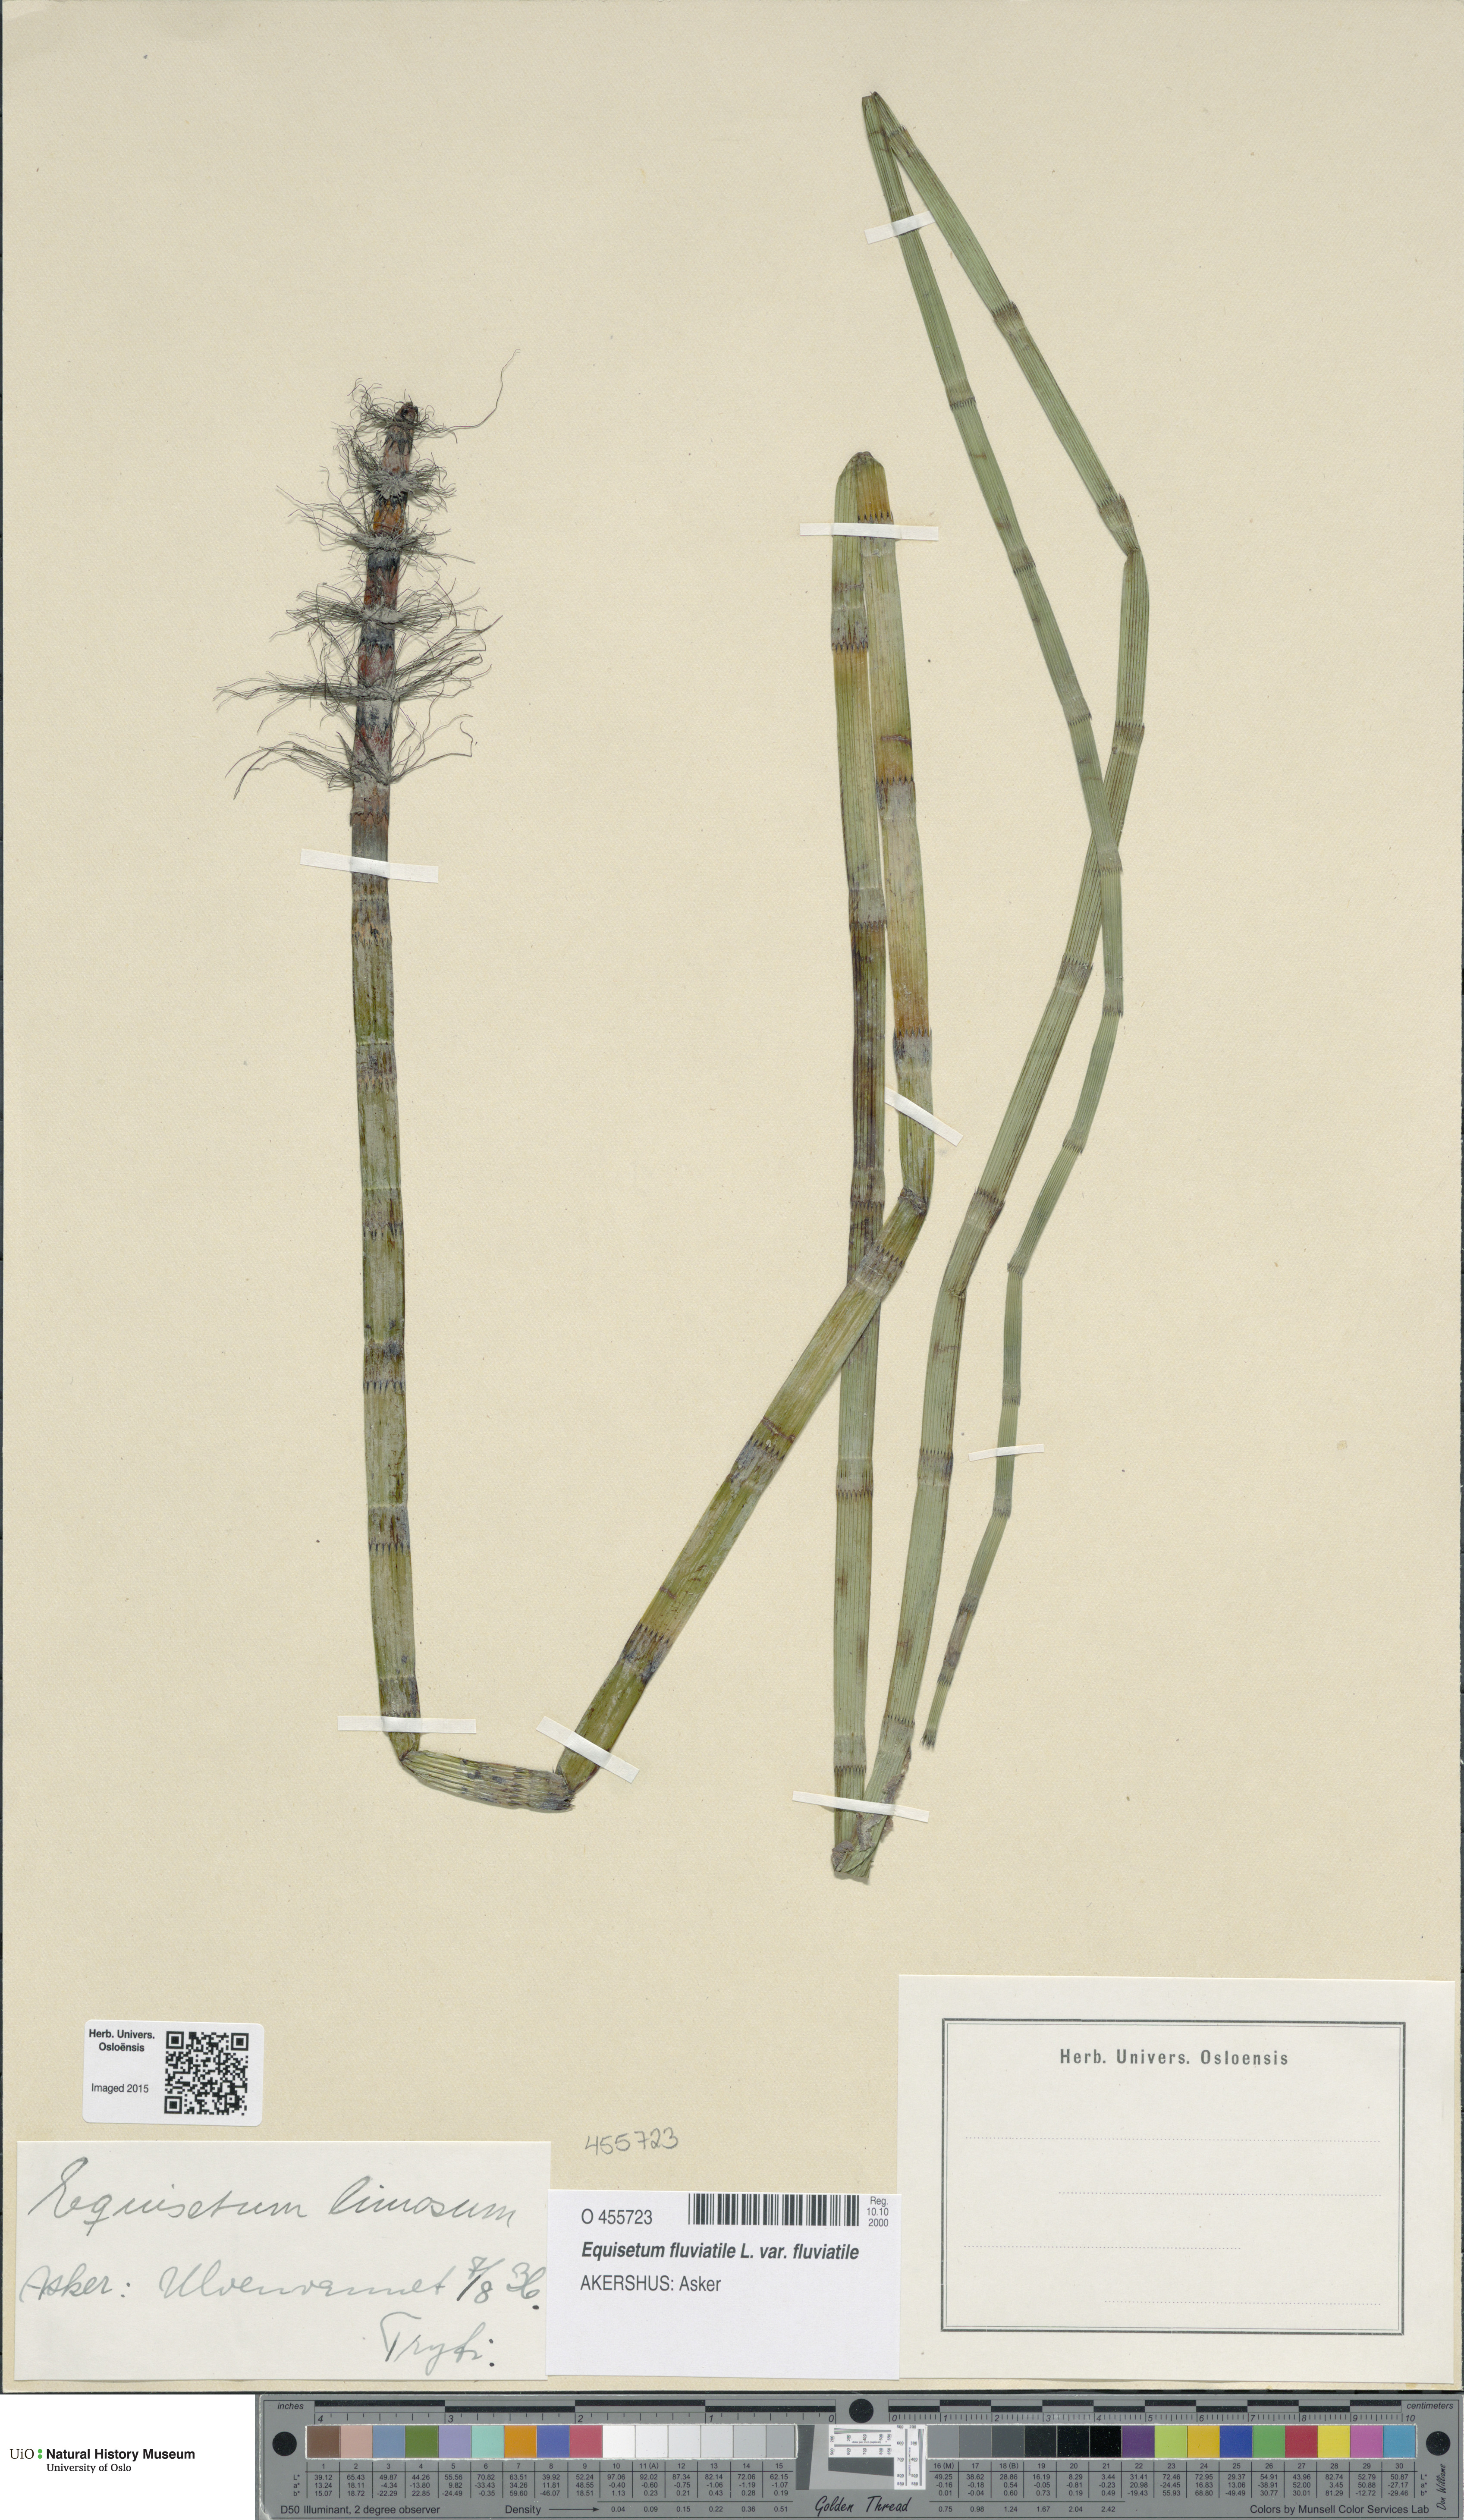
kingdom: Plantae
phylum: Tracheophyta
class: Polypodiopsida
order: Equisetales
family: Equisetaceae
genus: Equisetum
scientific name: Equisetum fluviatile
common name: Water horsetail
